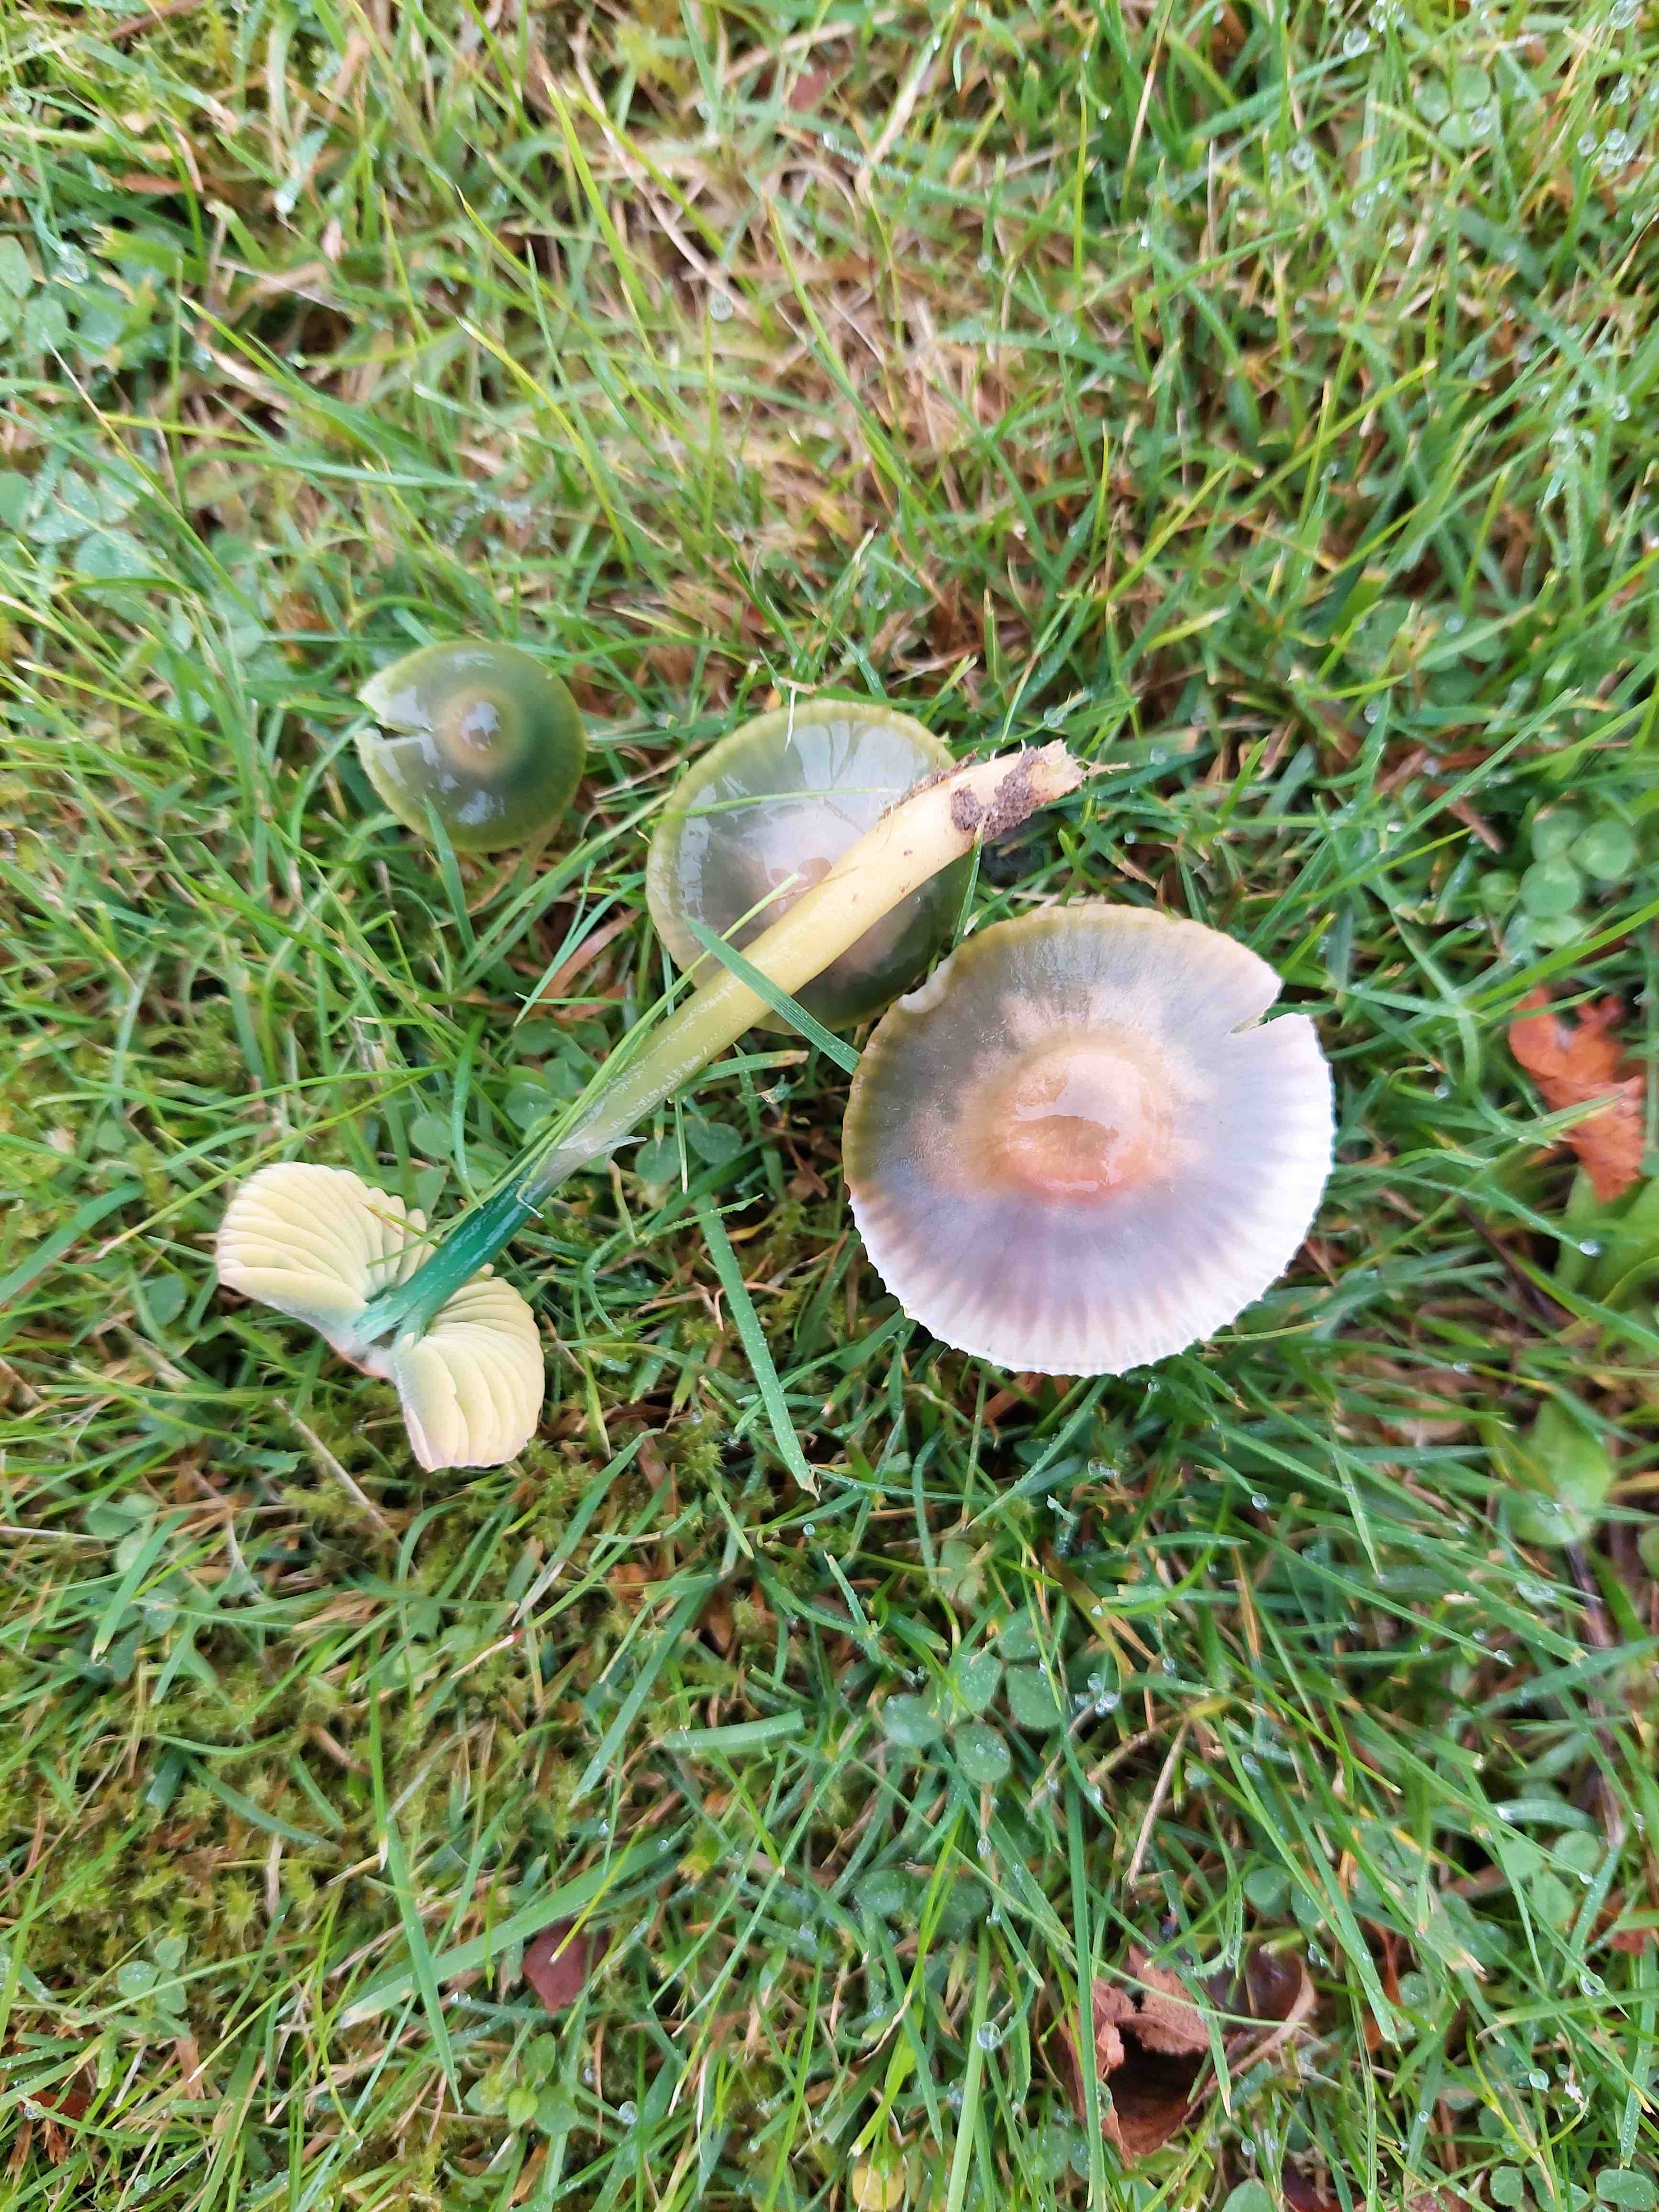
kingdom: Fungi
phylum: Basidiomycota
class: Agaricomycetes
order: Agaricales
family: Hygrophoraceae
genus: Gliophorus
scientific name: Gliophorus psittacinus
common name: papegøje-vokshat
